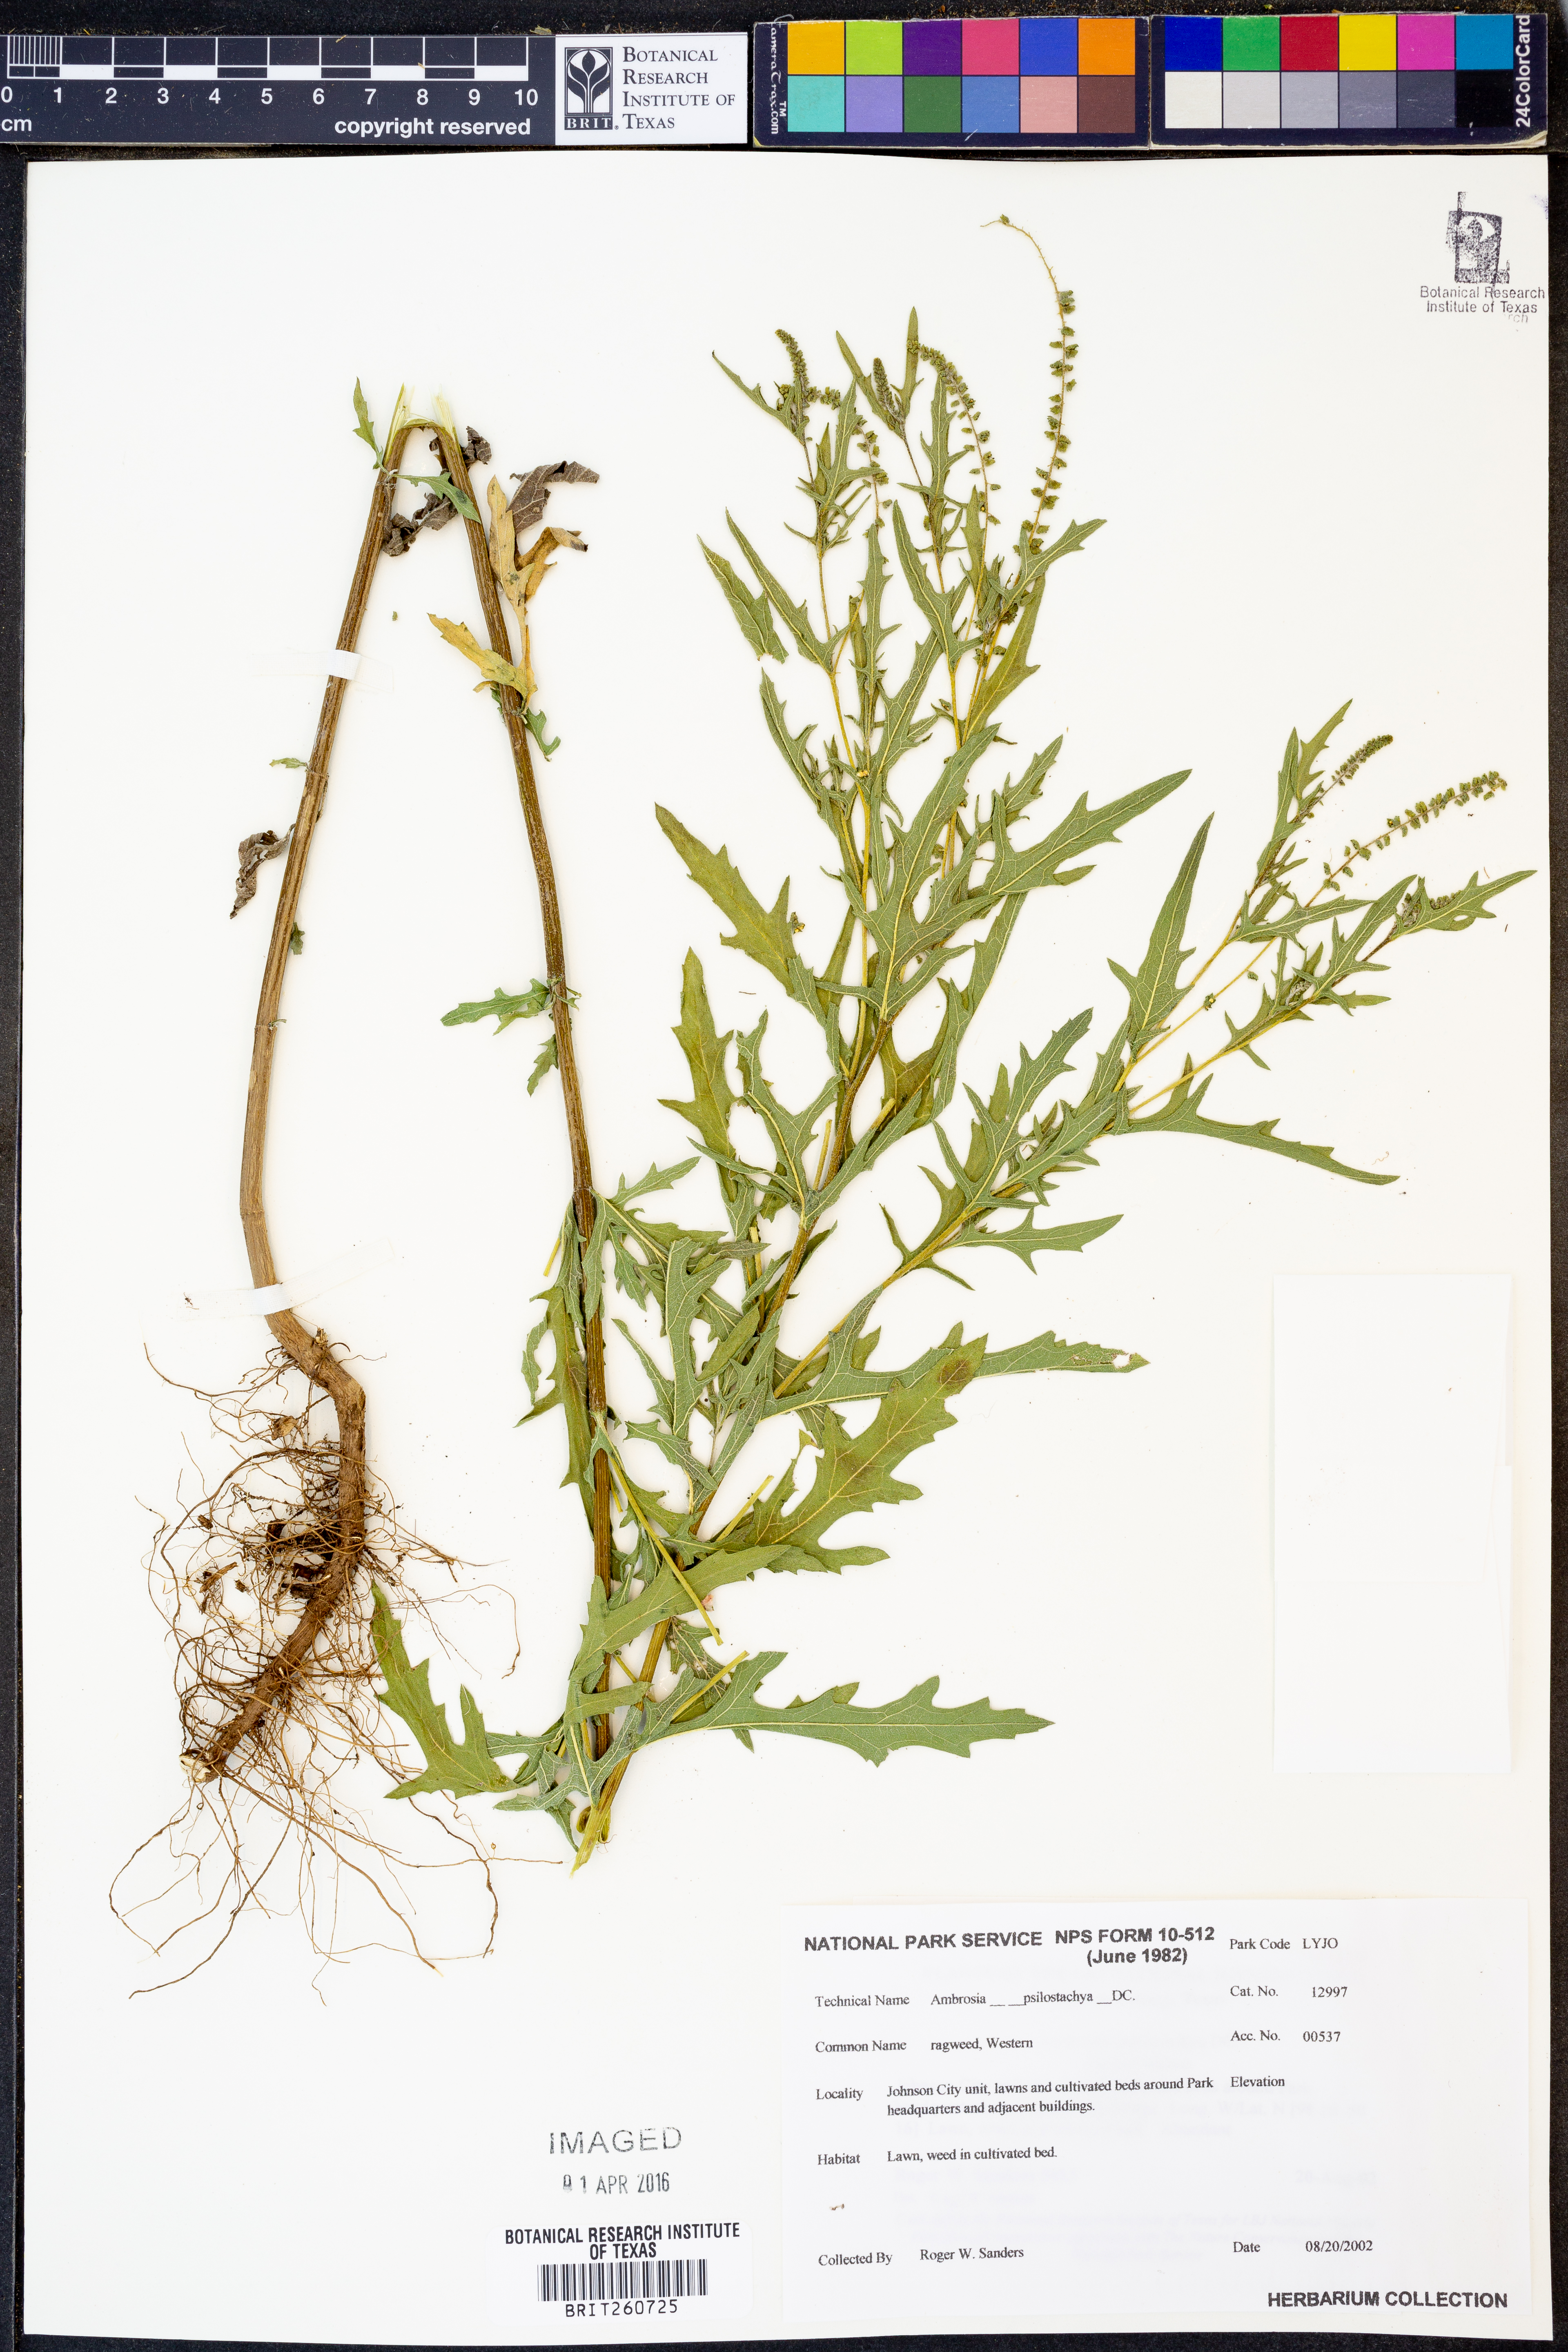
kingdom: Plantae
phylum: Tracheophyta
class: Magnoliopsida
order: Asterales
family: Asteraceae
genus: Ambrosia
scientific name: Ambrosia psilostachya
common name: Perennial ragweed
